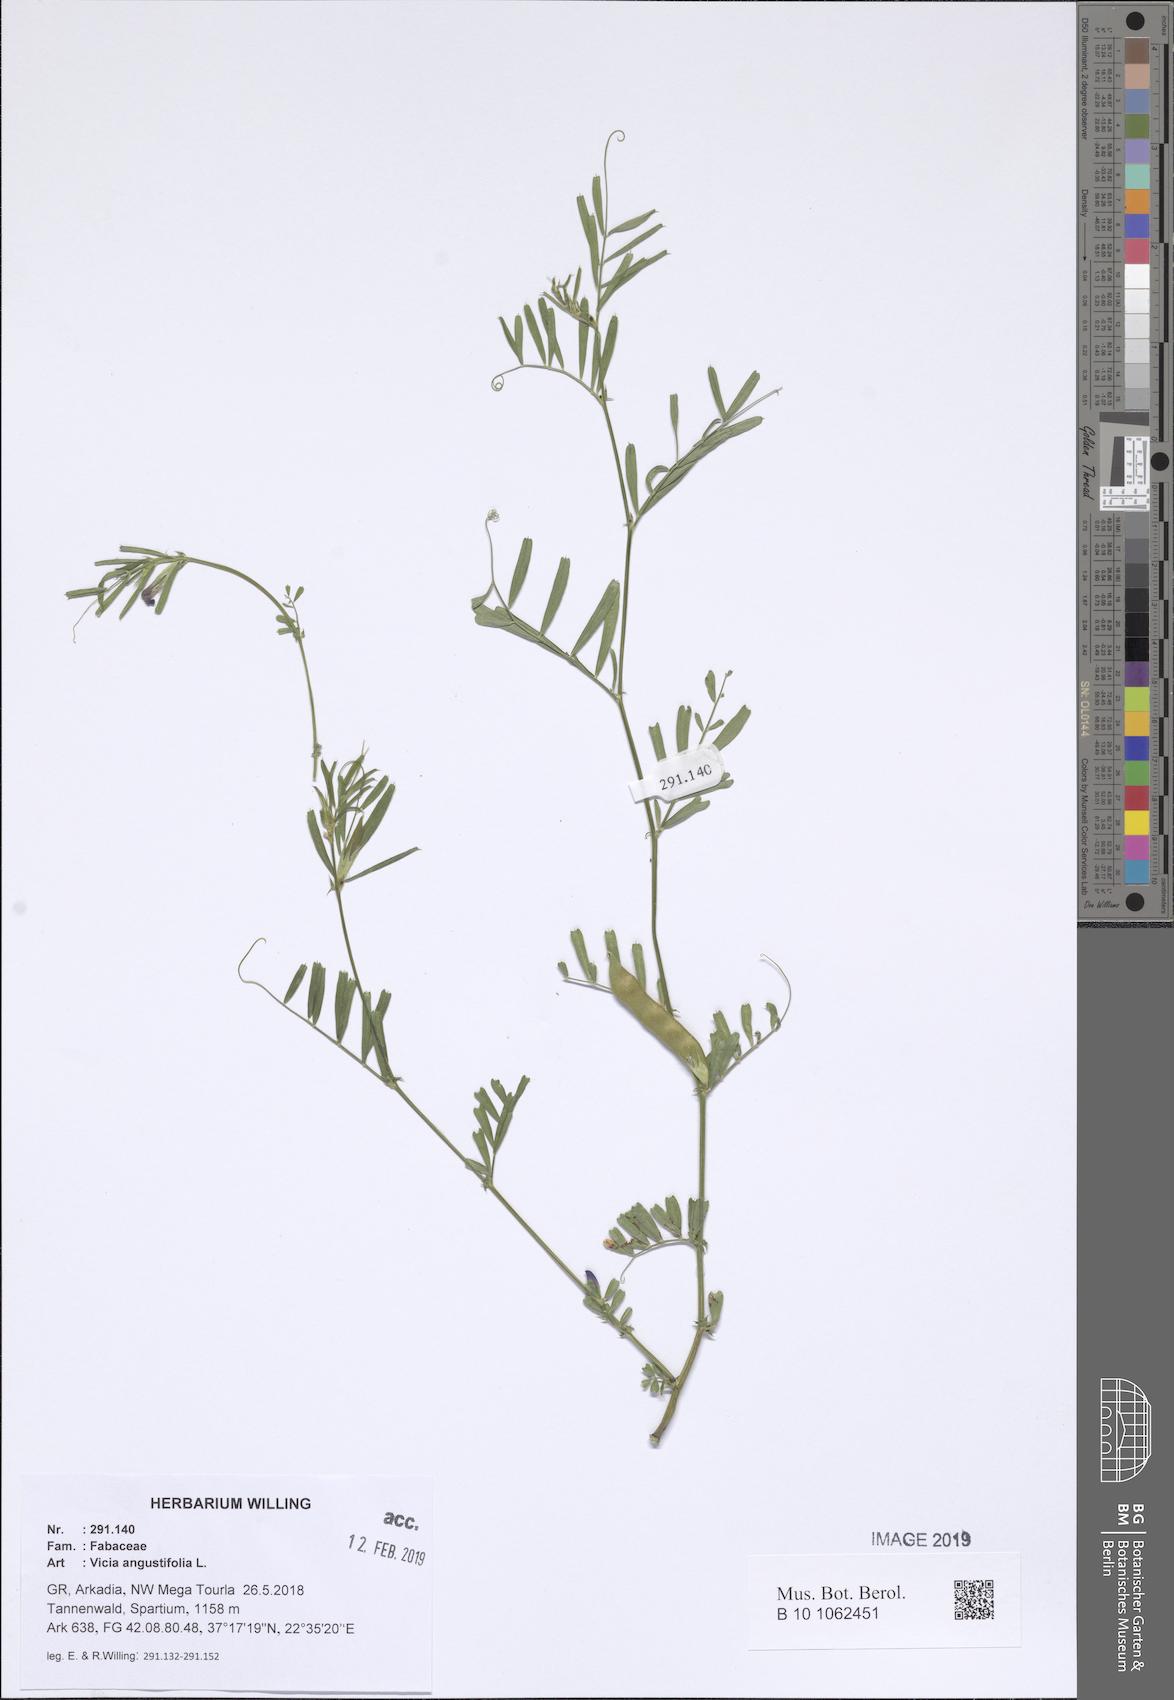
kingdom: Plantae
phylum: Tracheophyta
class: Magnoliopsida
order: Fabales
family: Fabaceae
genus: Vicia
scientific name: Vicia sativa
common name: Garden vetch
